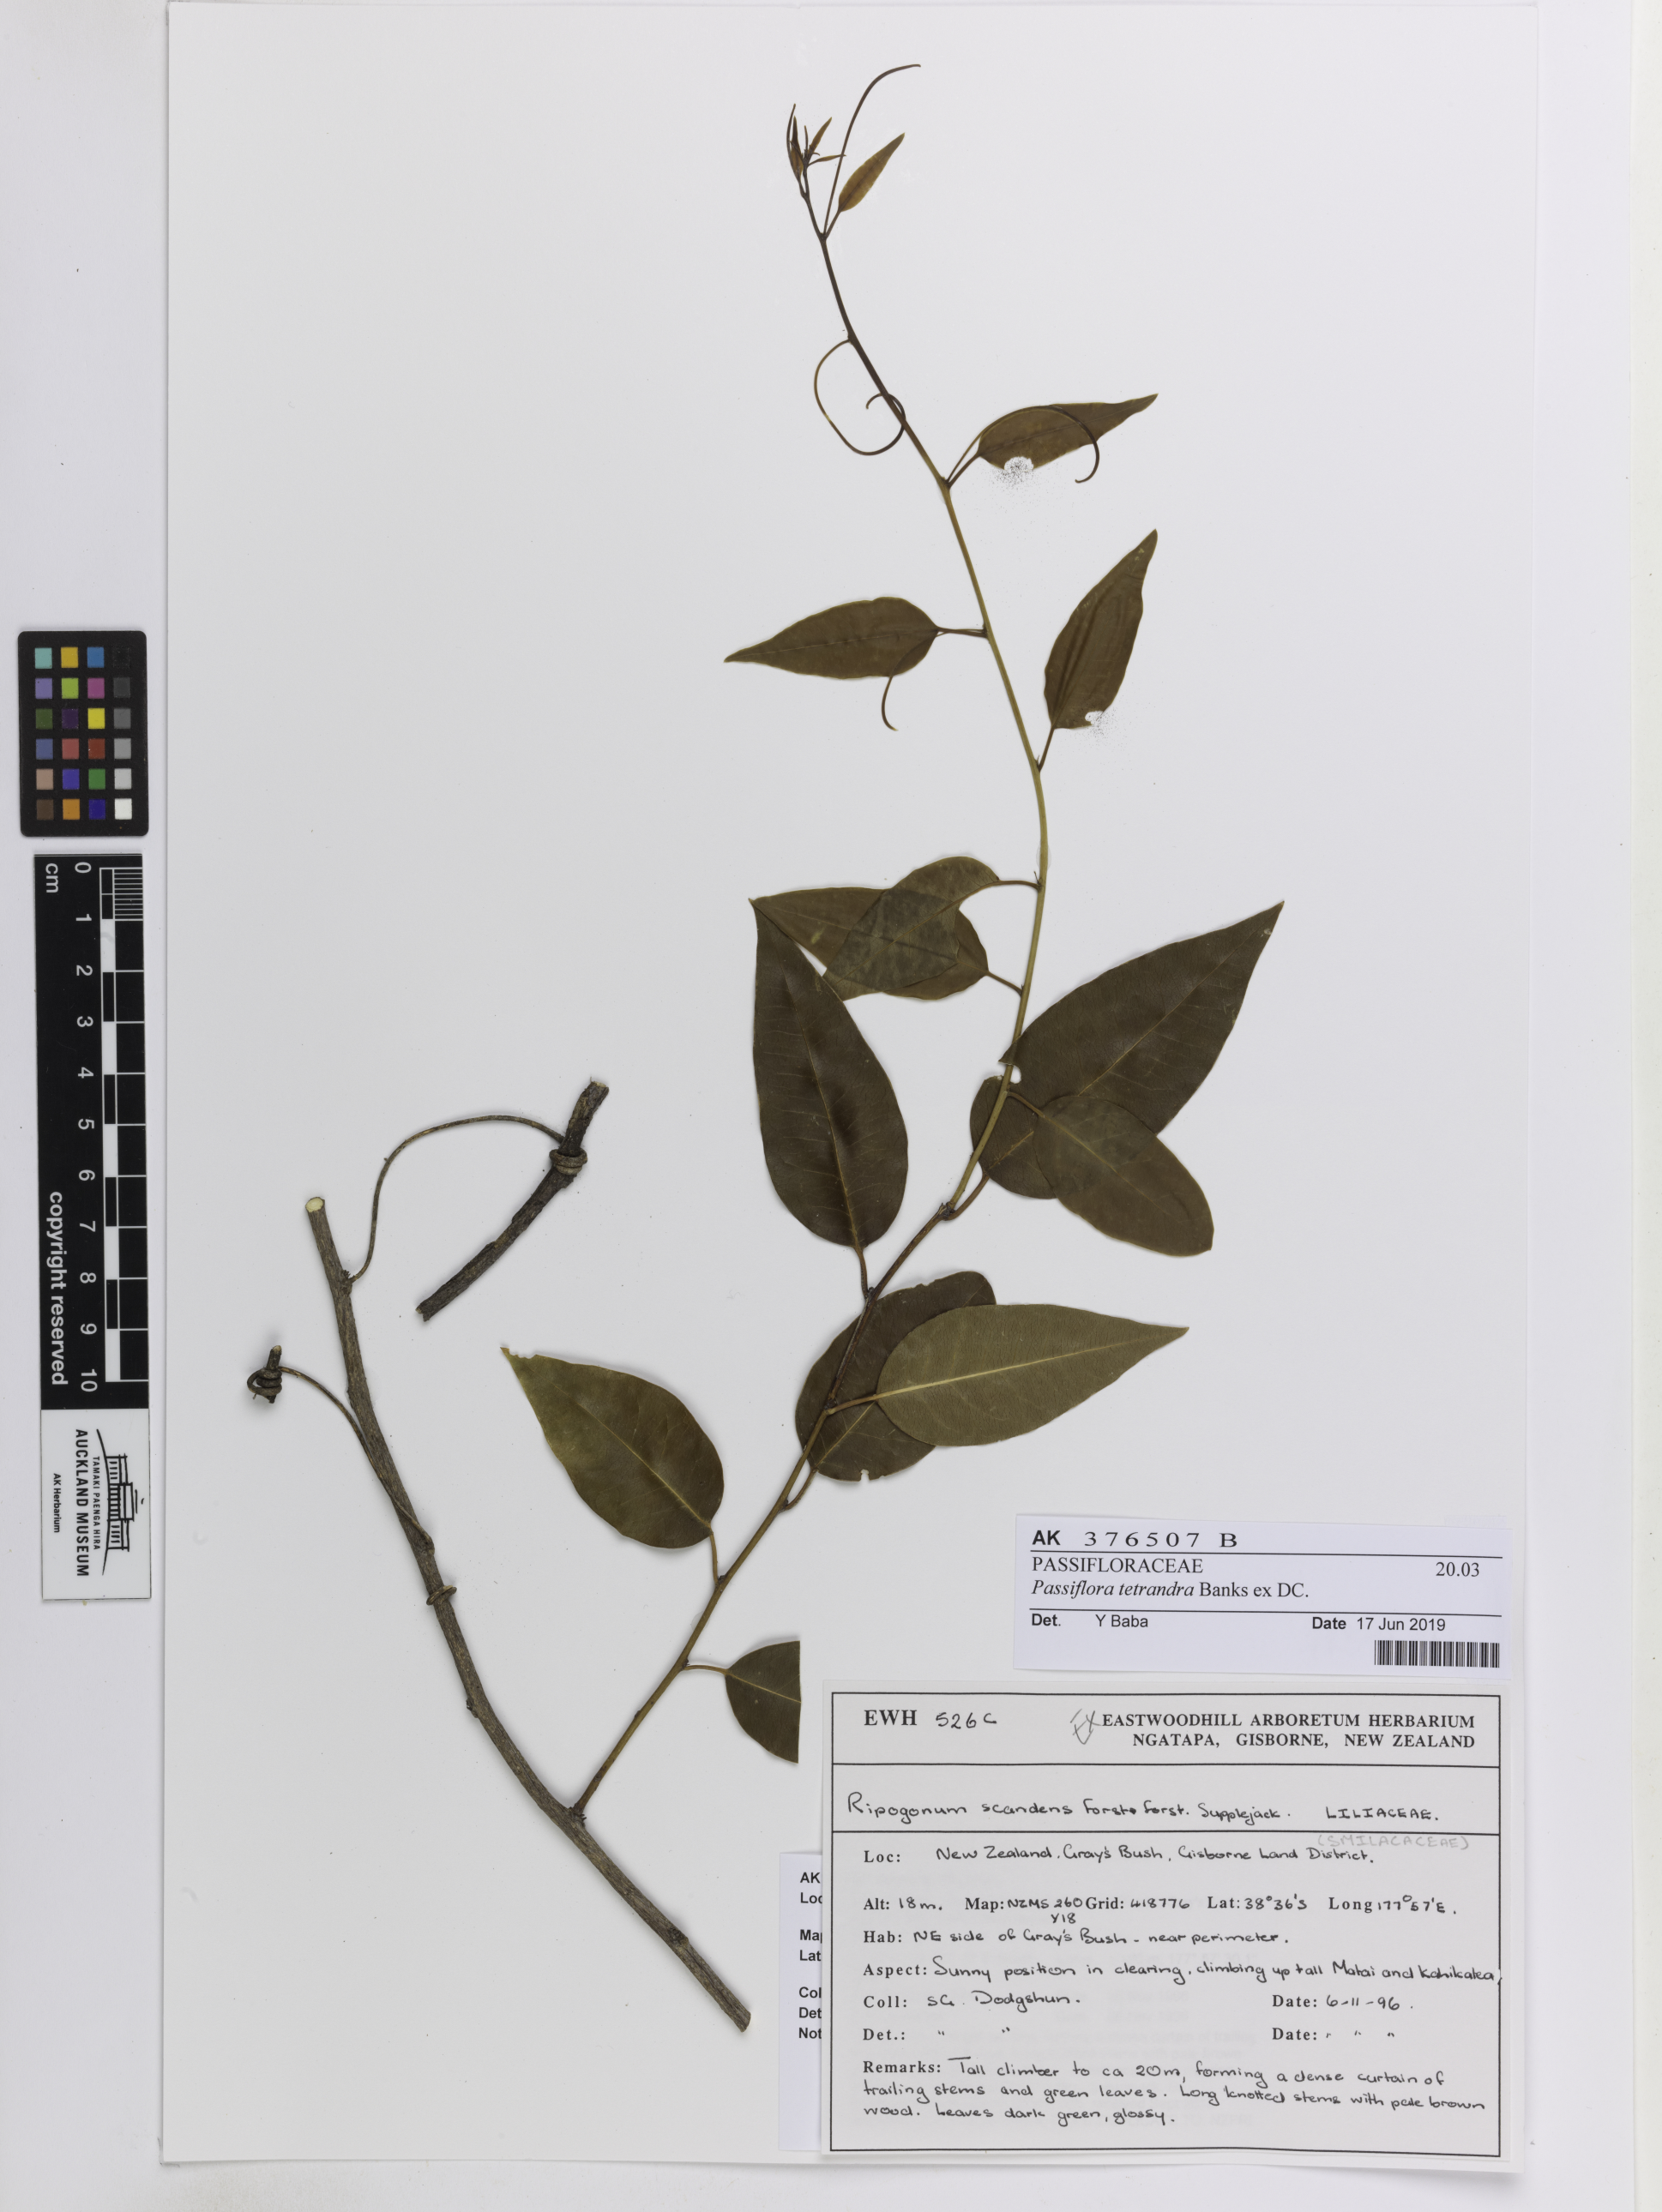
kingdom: Plantae
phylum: Tracheophyta
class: Magnoliopsida
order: Malpighiales
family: Passifloraceae
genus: Passiflora
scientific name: Passiflora tetrandra
